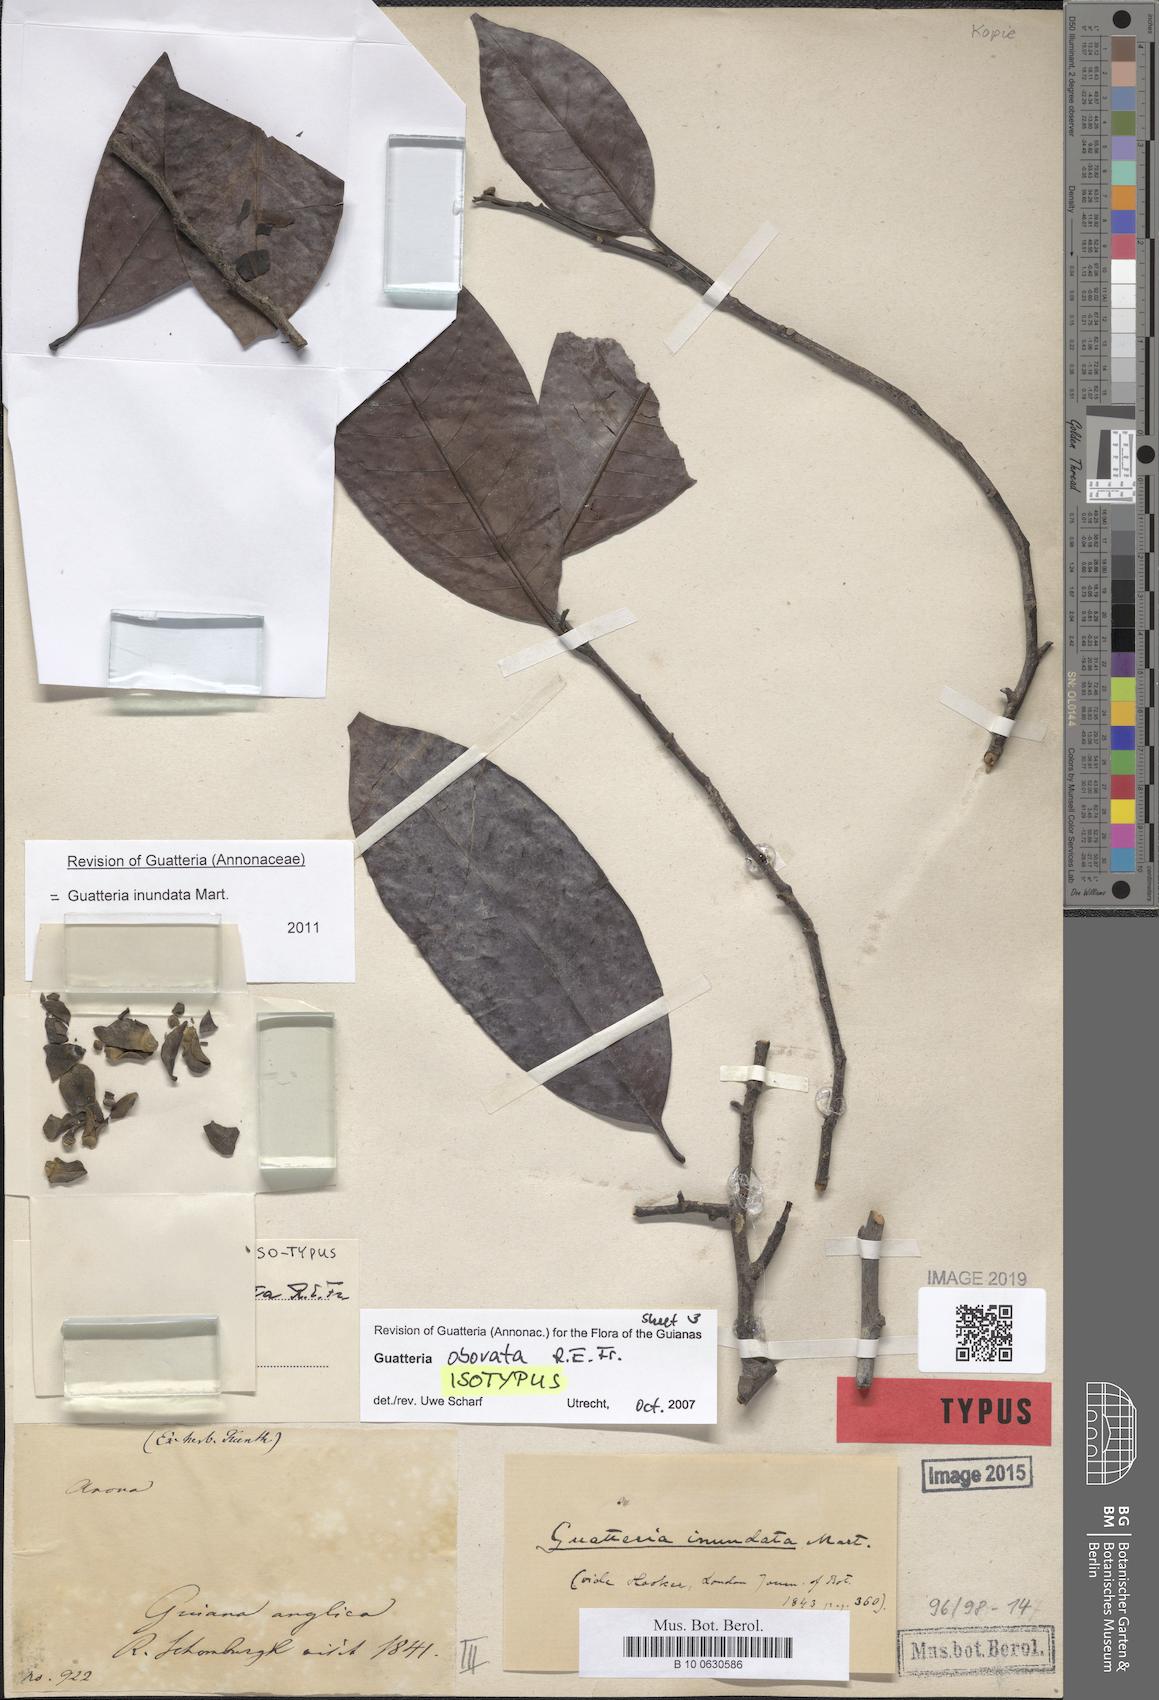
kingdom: Plantae
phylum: Tracheophyta
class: Magnoliopsida
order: Magnoliales
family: Annonaceae
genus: Guatteria
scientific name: Guatteria inundata
